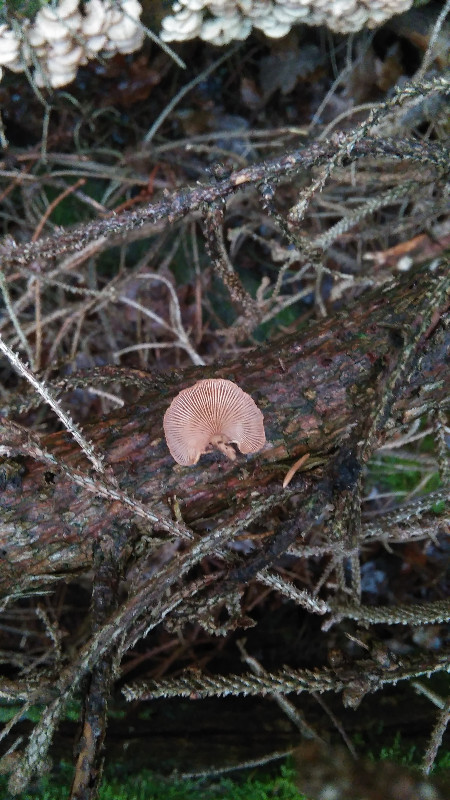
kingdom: Fungi
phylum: Basidiomycota
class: Agaricomycetes
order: Agaricales
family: Mycenaceae
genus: Panellus
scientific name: Panellus stipticus
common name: kliddet epaulethat
